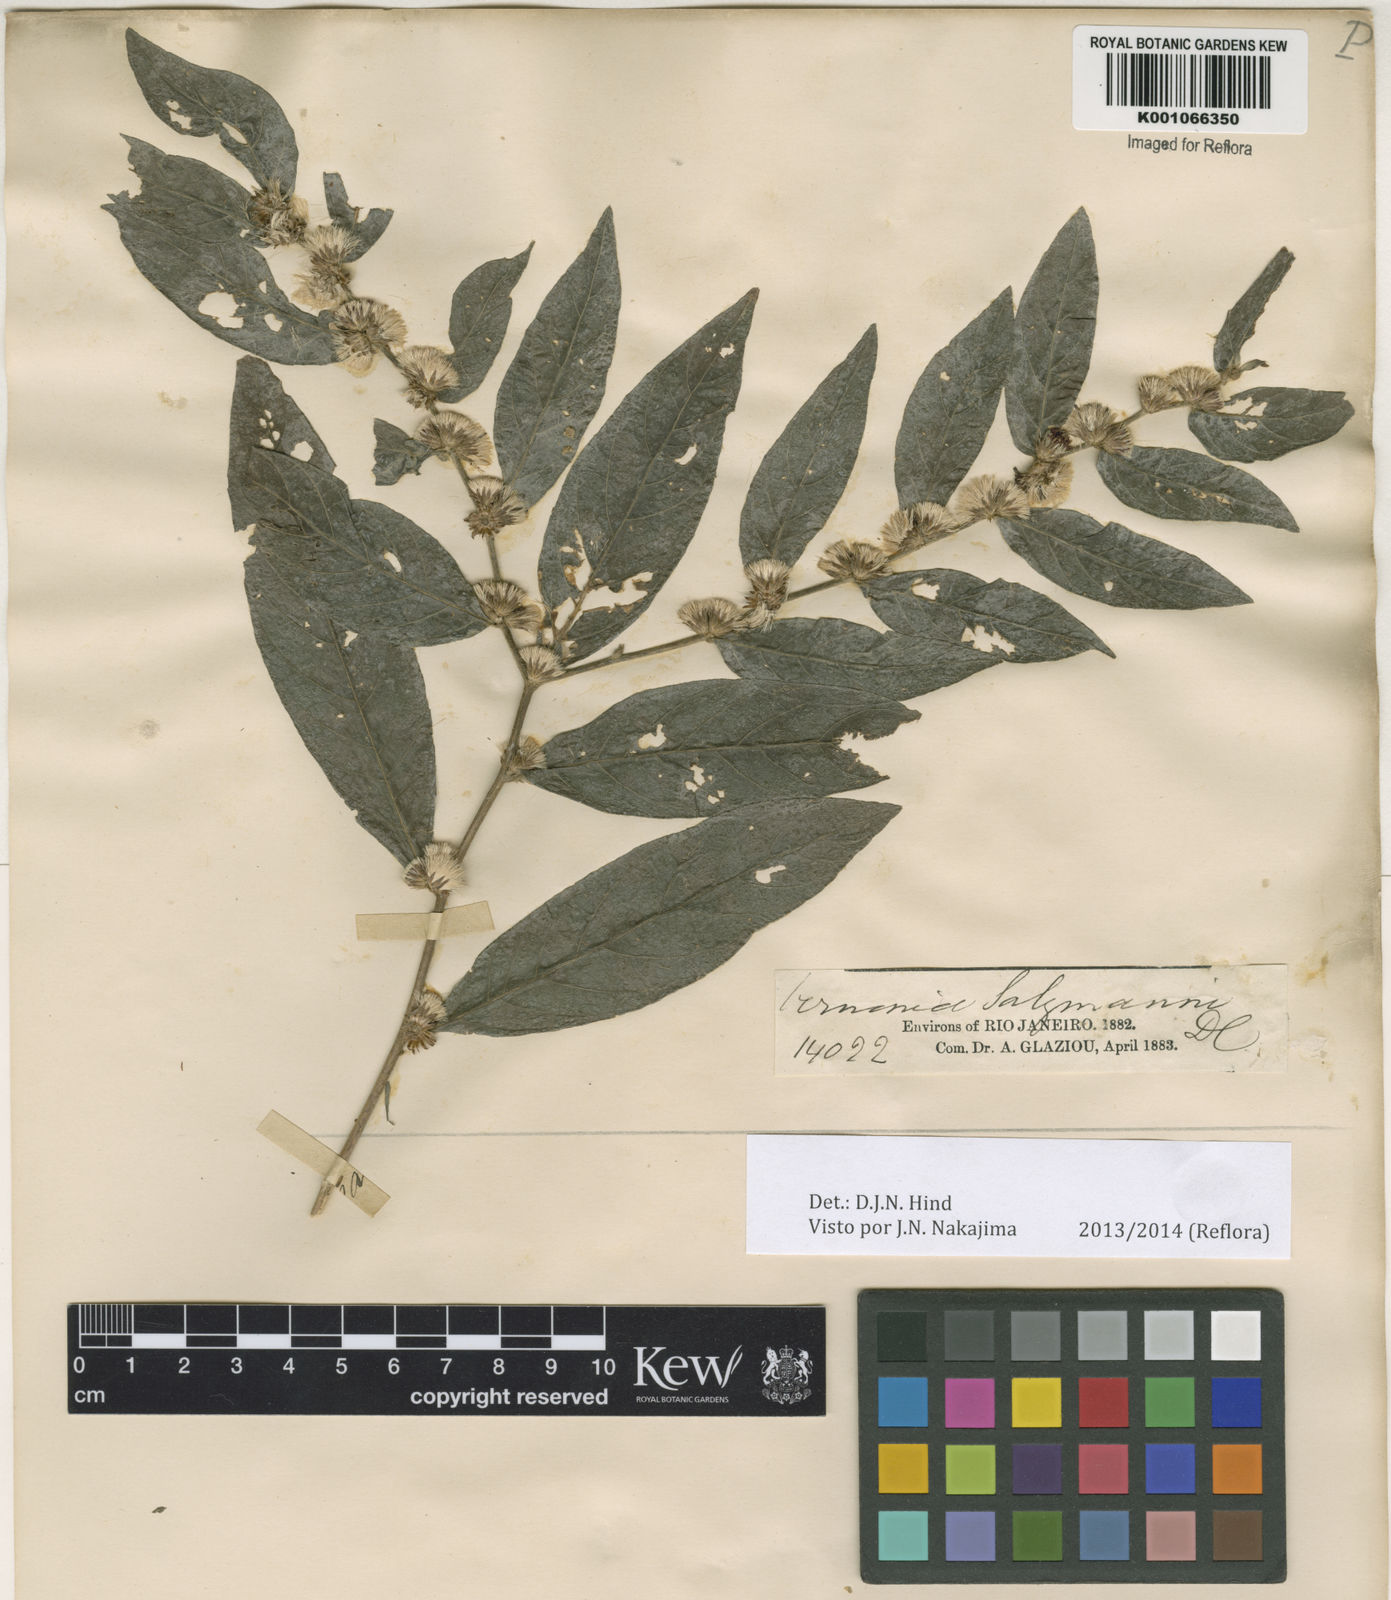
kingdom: Plantae
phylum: Tracheophyta
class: Magnoliopsida
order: Asterales
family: Asteraceae
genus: Lepidaploa
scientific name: Lepidaploa salzmannii
